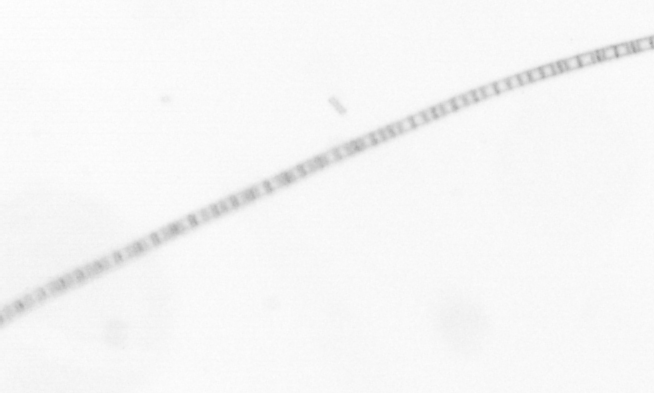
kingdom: Chromista
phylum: Ochrophyta
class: Bacillariophyceae
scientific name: Bacillariophyceae
